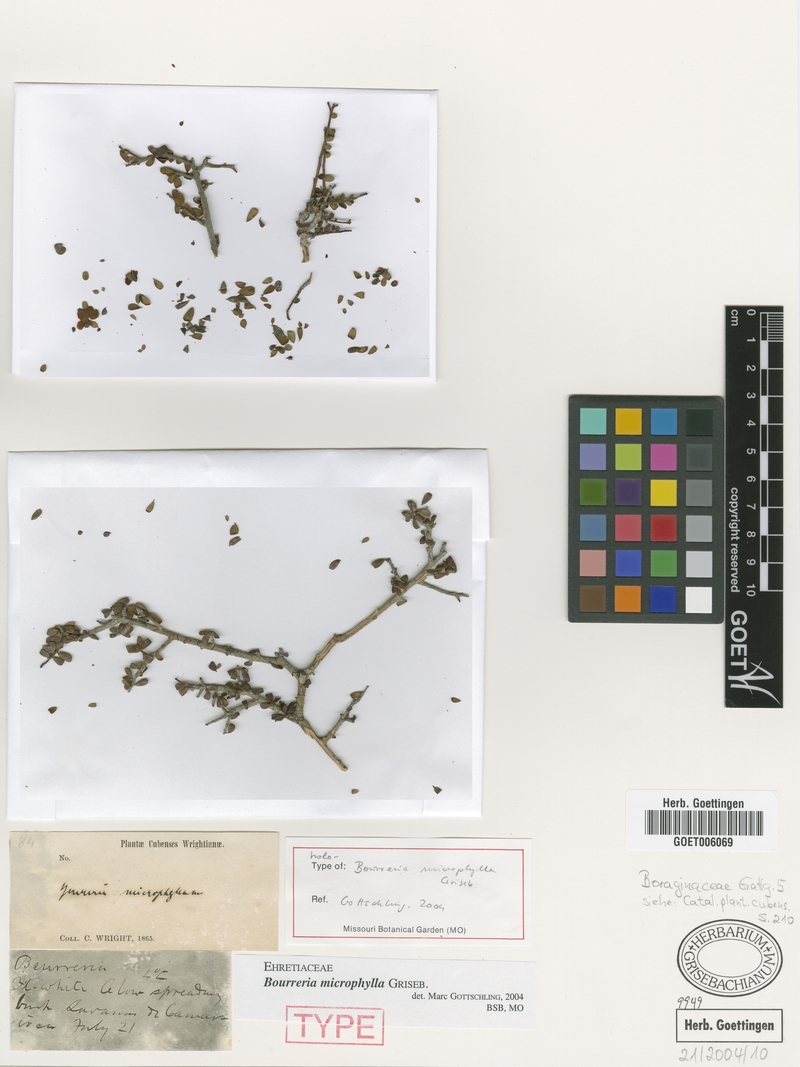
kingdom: Plantae
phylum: Tracheophyta
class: Magnoliopsida
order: Boraginales
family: Ehretiaceae
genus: Bourreria
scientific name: Bourreria microphylla
